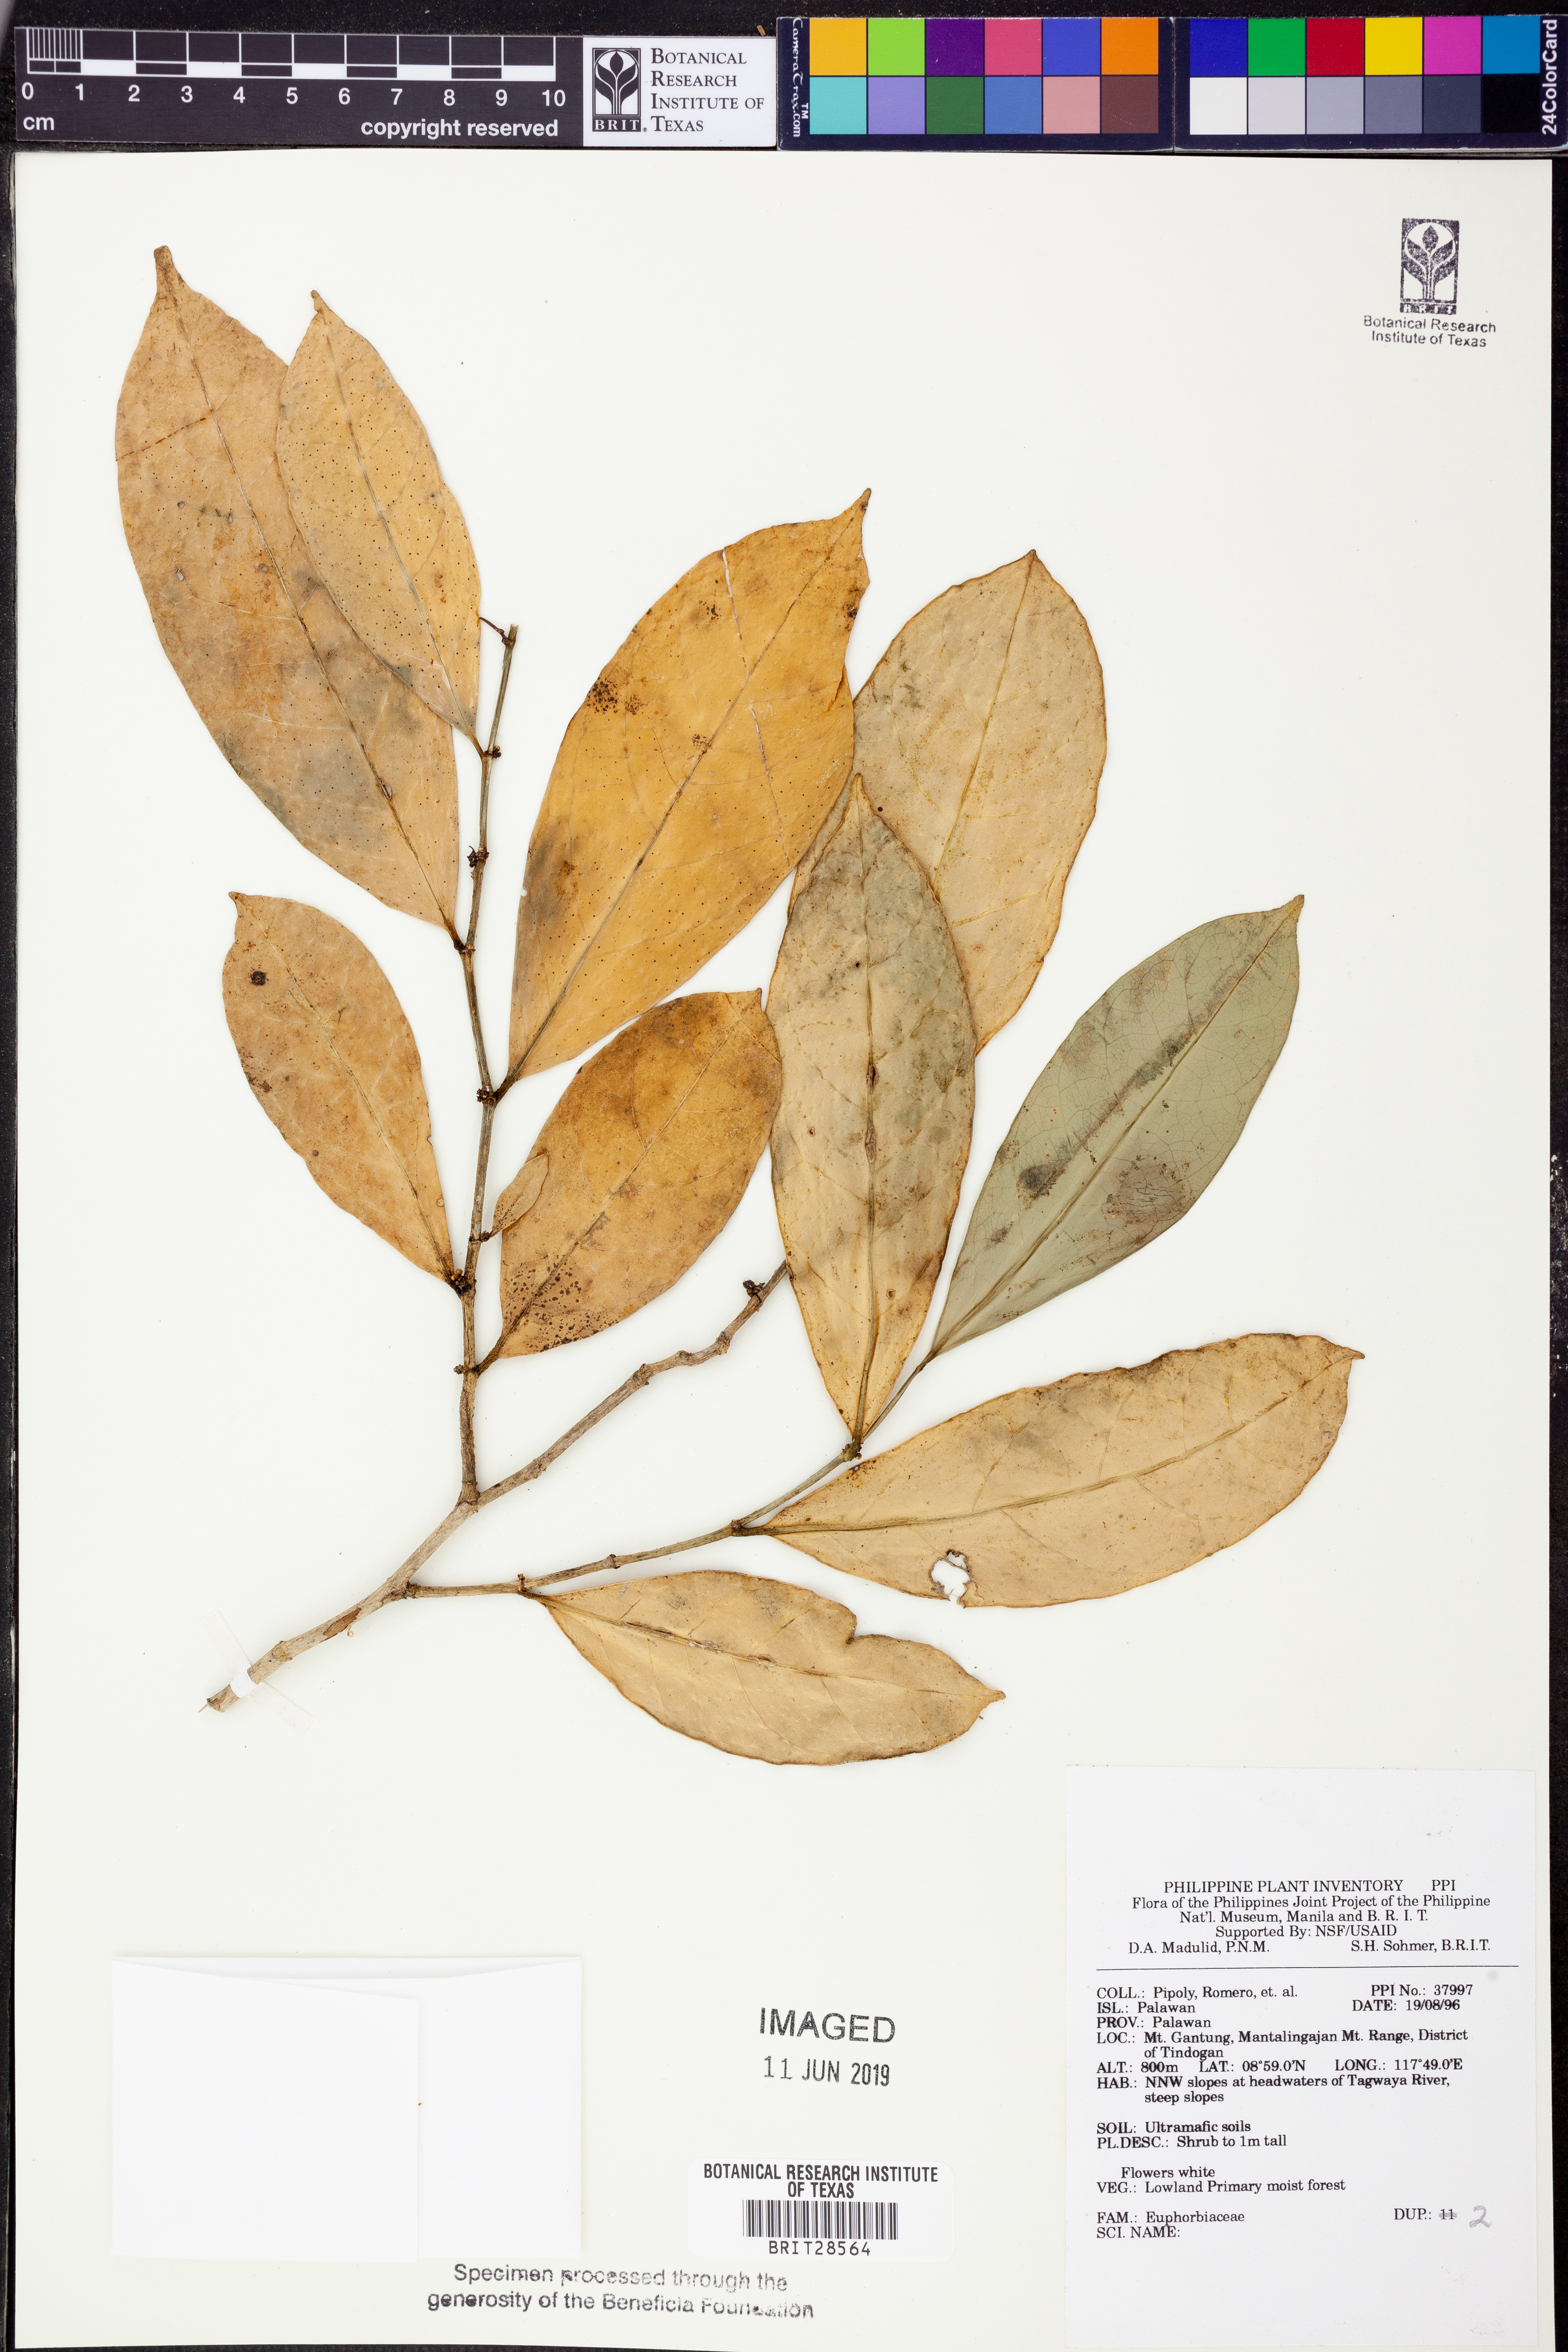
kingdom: Plantae
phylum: Tracheophyta
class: Magnoliopsida
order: Malpighiales
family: Euphorbiaceae
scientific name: Euphorbiaceae
